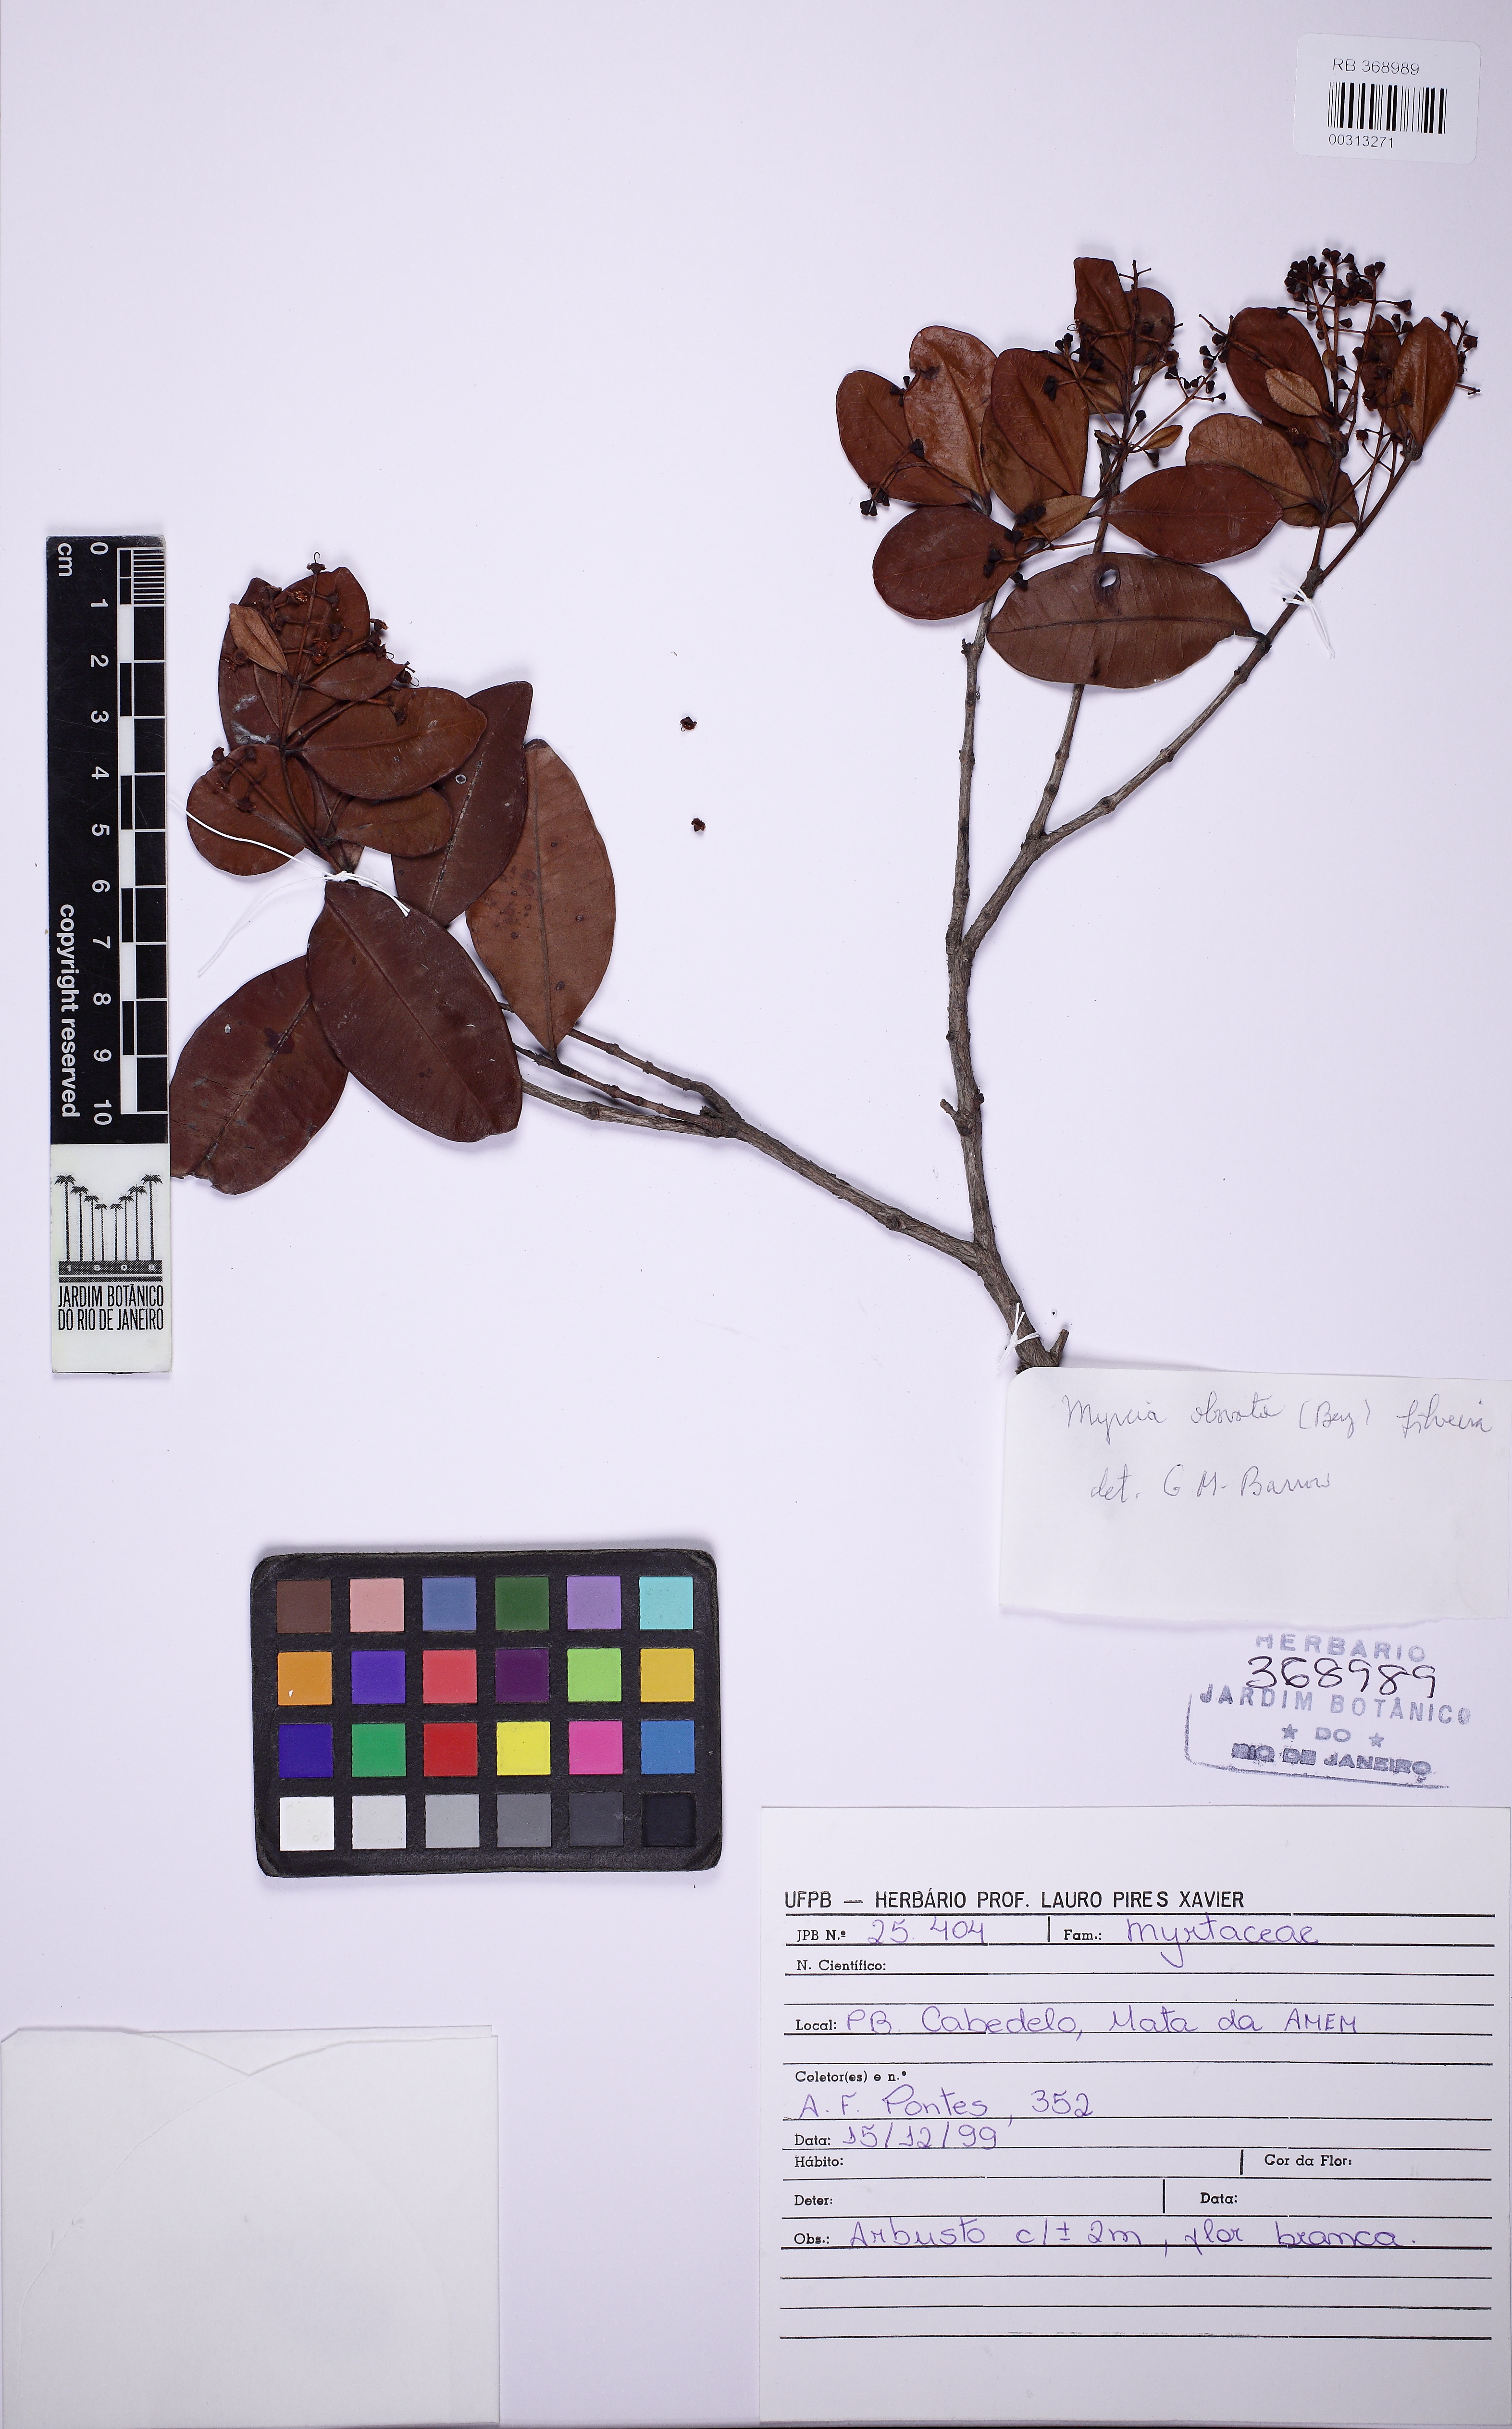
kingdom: Plantae
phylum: Tracheophyta
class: Magnoliopsida
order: Myrtales
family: Myrtaceae
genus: Myrcia
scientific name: Myrcia obovata
